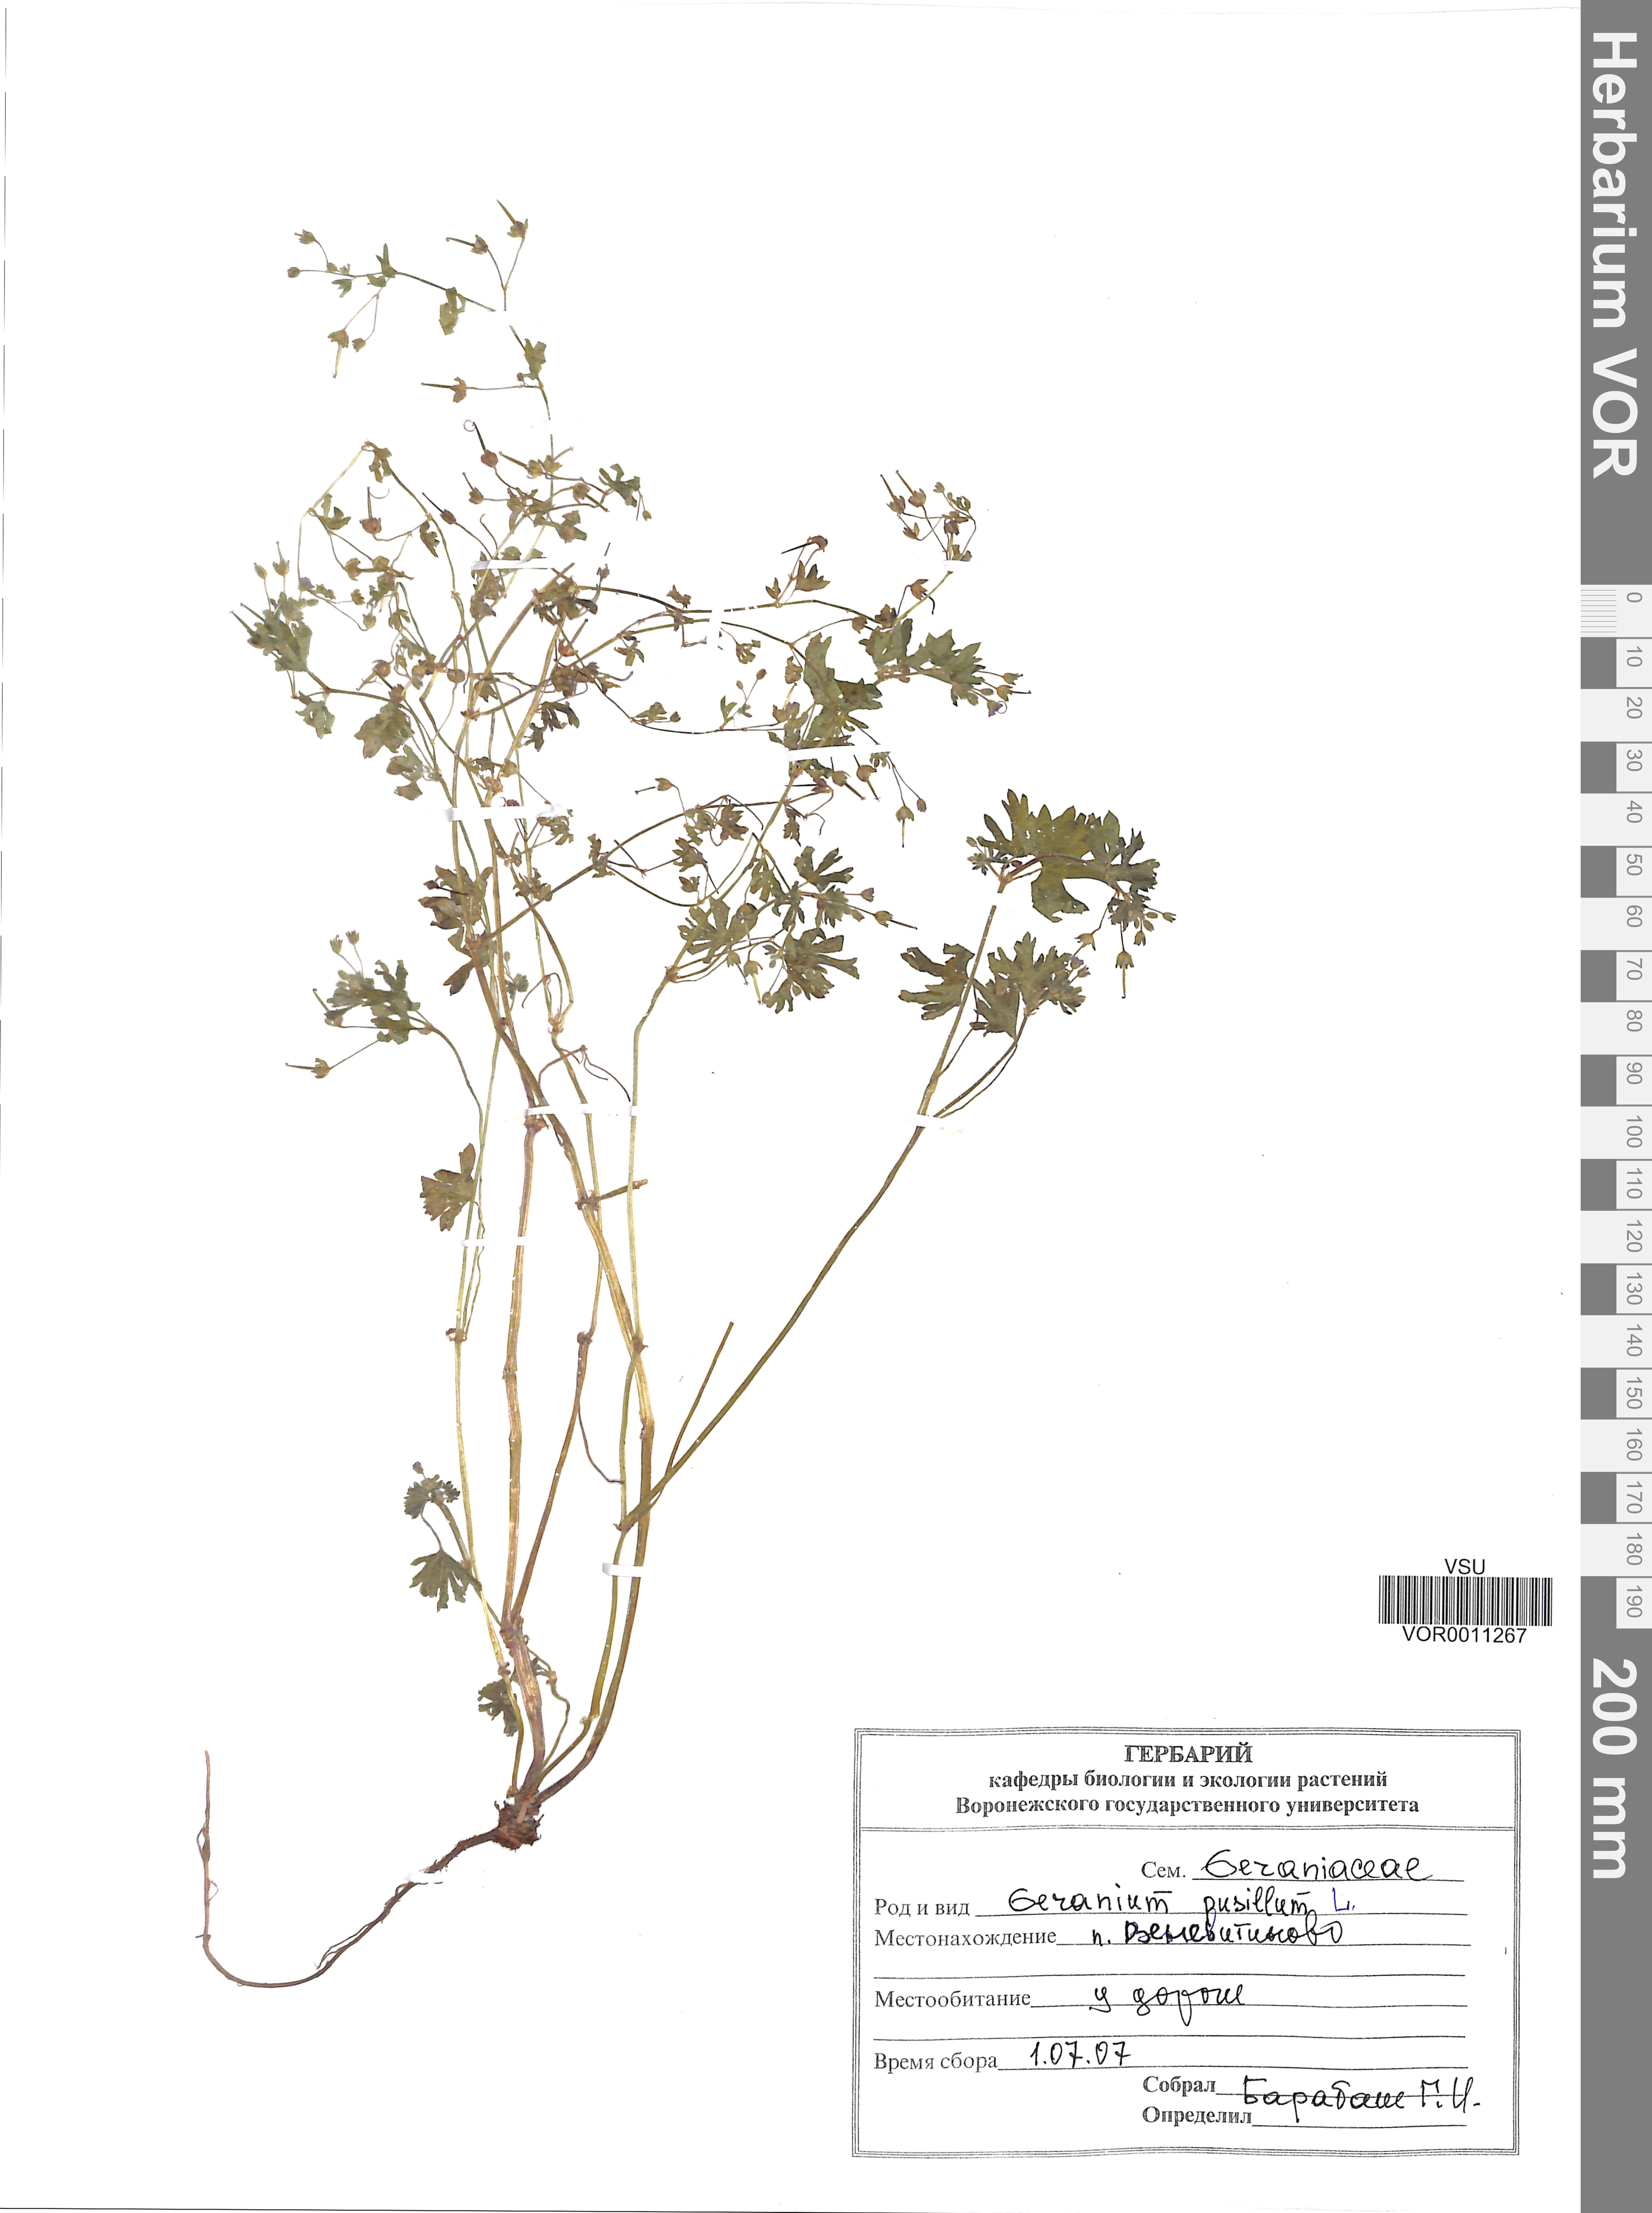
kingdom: Plantae
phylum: Tracheophyta
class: Magnoliopsida
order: Geraniales
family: Geraniaceae
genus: Geranium
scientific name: Geranium pusillum
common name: Small geranium
